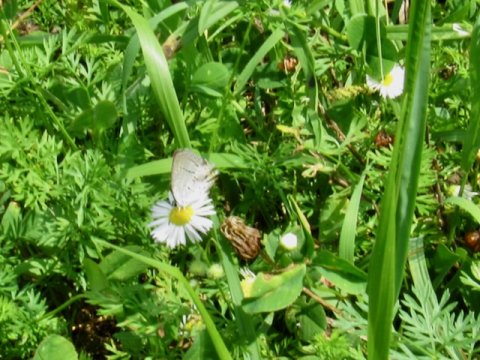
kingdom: Animalia
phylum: Arthropoda
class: Insecta
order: Lepidoptera
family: Lycaenidae
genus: Elkalyce
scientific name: Elkalyce comyntas
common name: Eastern Tailed-Blue
